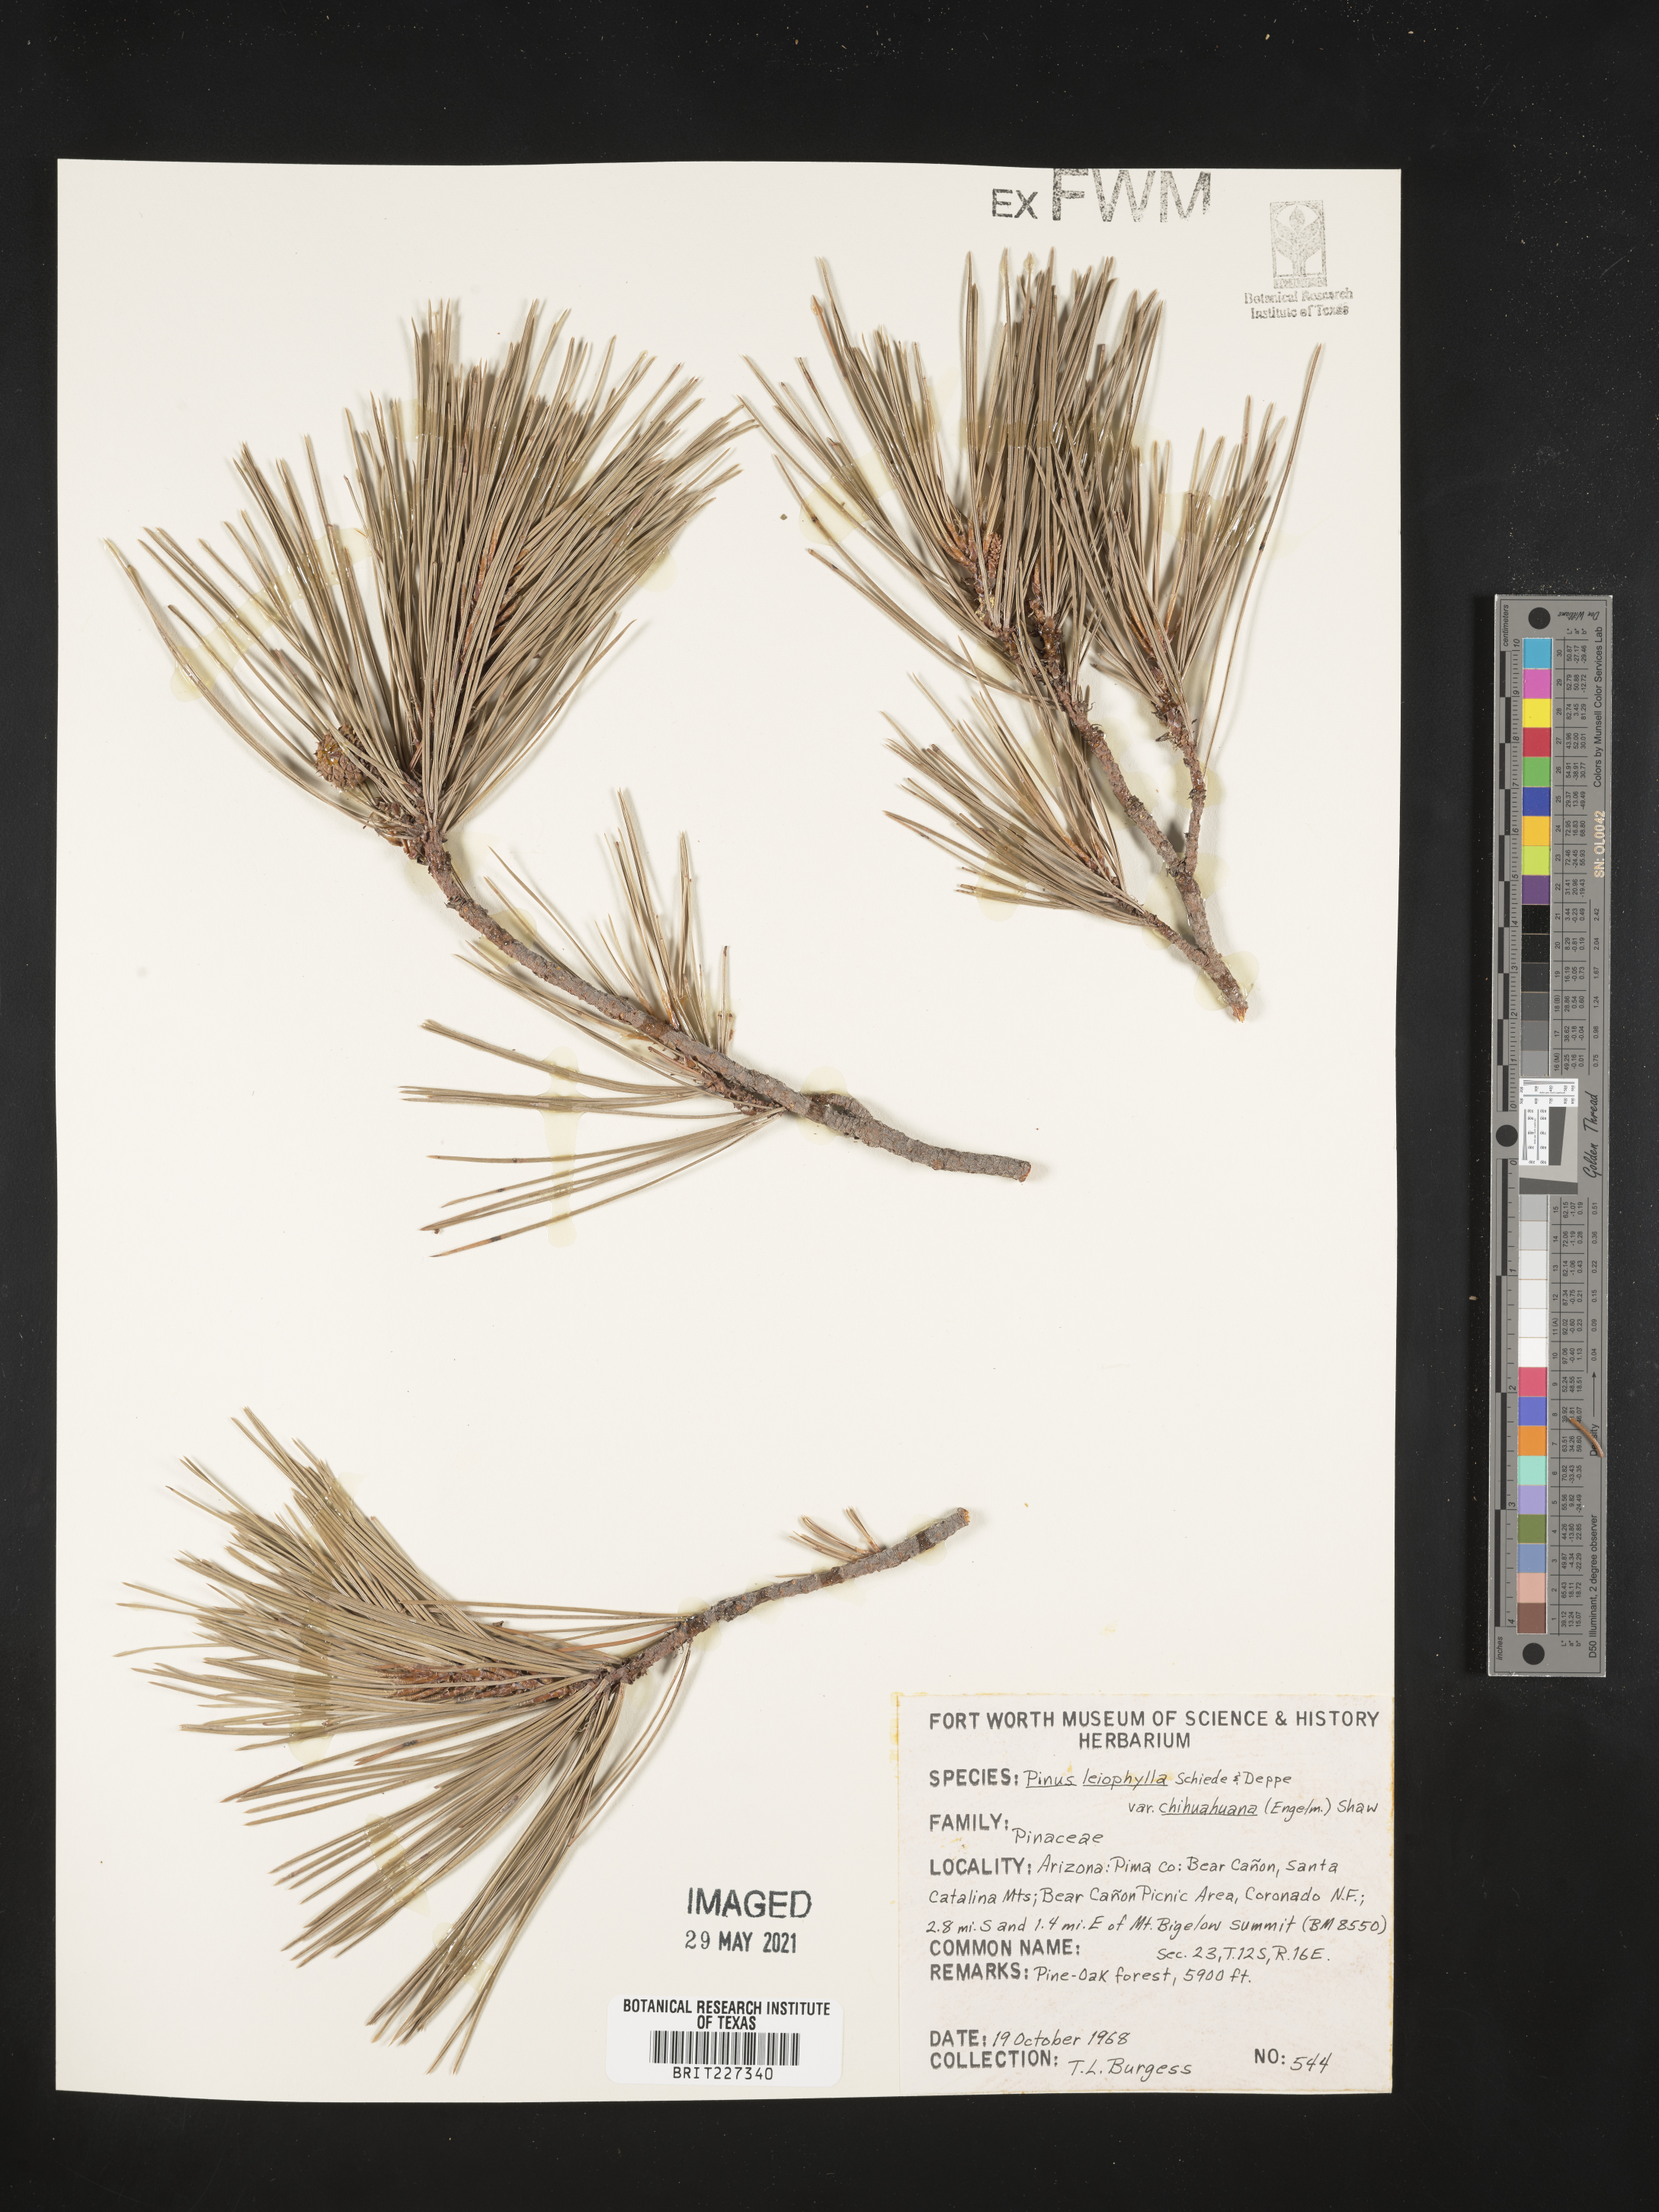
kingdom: Plantae
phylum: Tracheophyta
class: Pinopsida
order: Pinales
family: Pinaceae
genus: Pinus
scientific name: Pinus leiophylla
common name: Chihuahua pine
